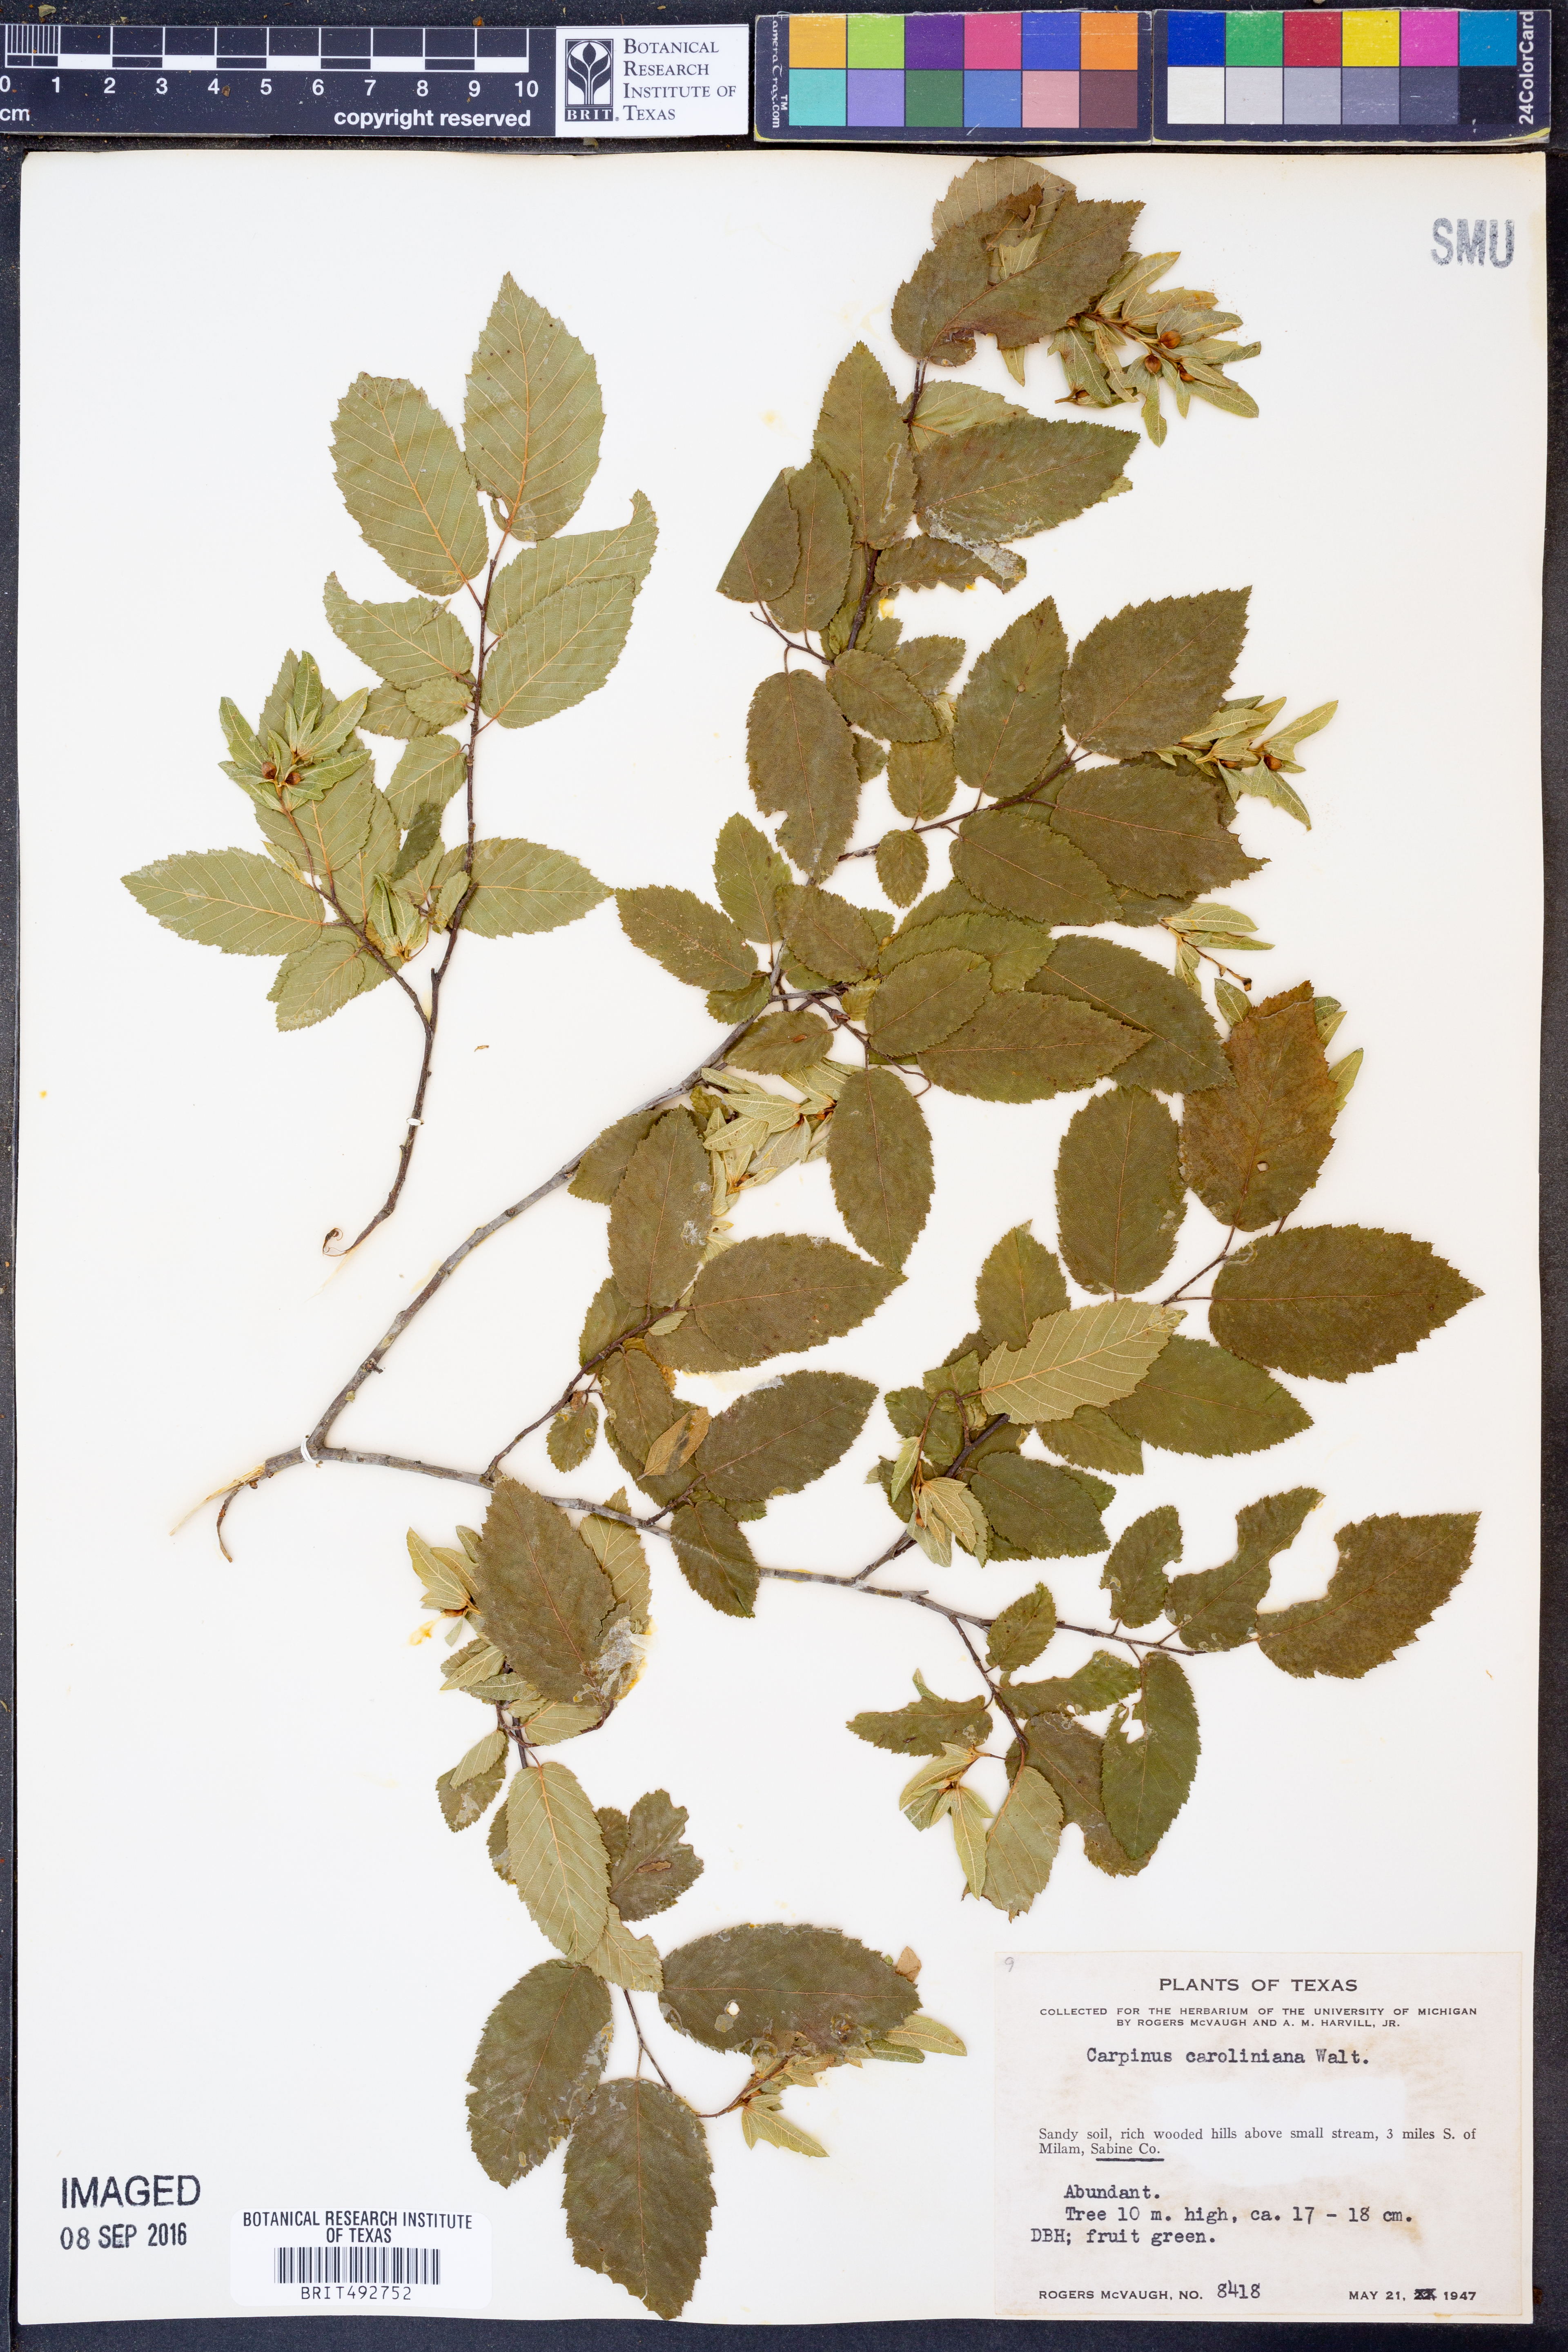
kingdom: Plantae
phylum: Tracheophyta
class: Magnoliopsida
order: Fagales
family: Betulaceae
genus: Carpinus
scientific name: Carpinus caroliniana
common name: American hornbeam
